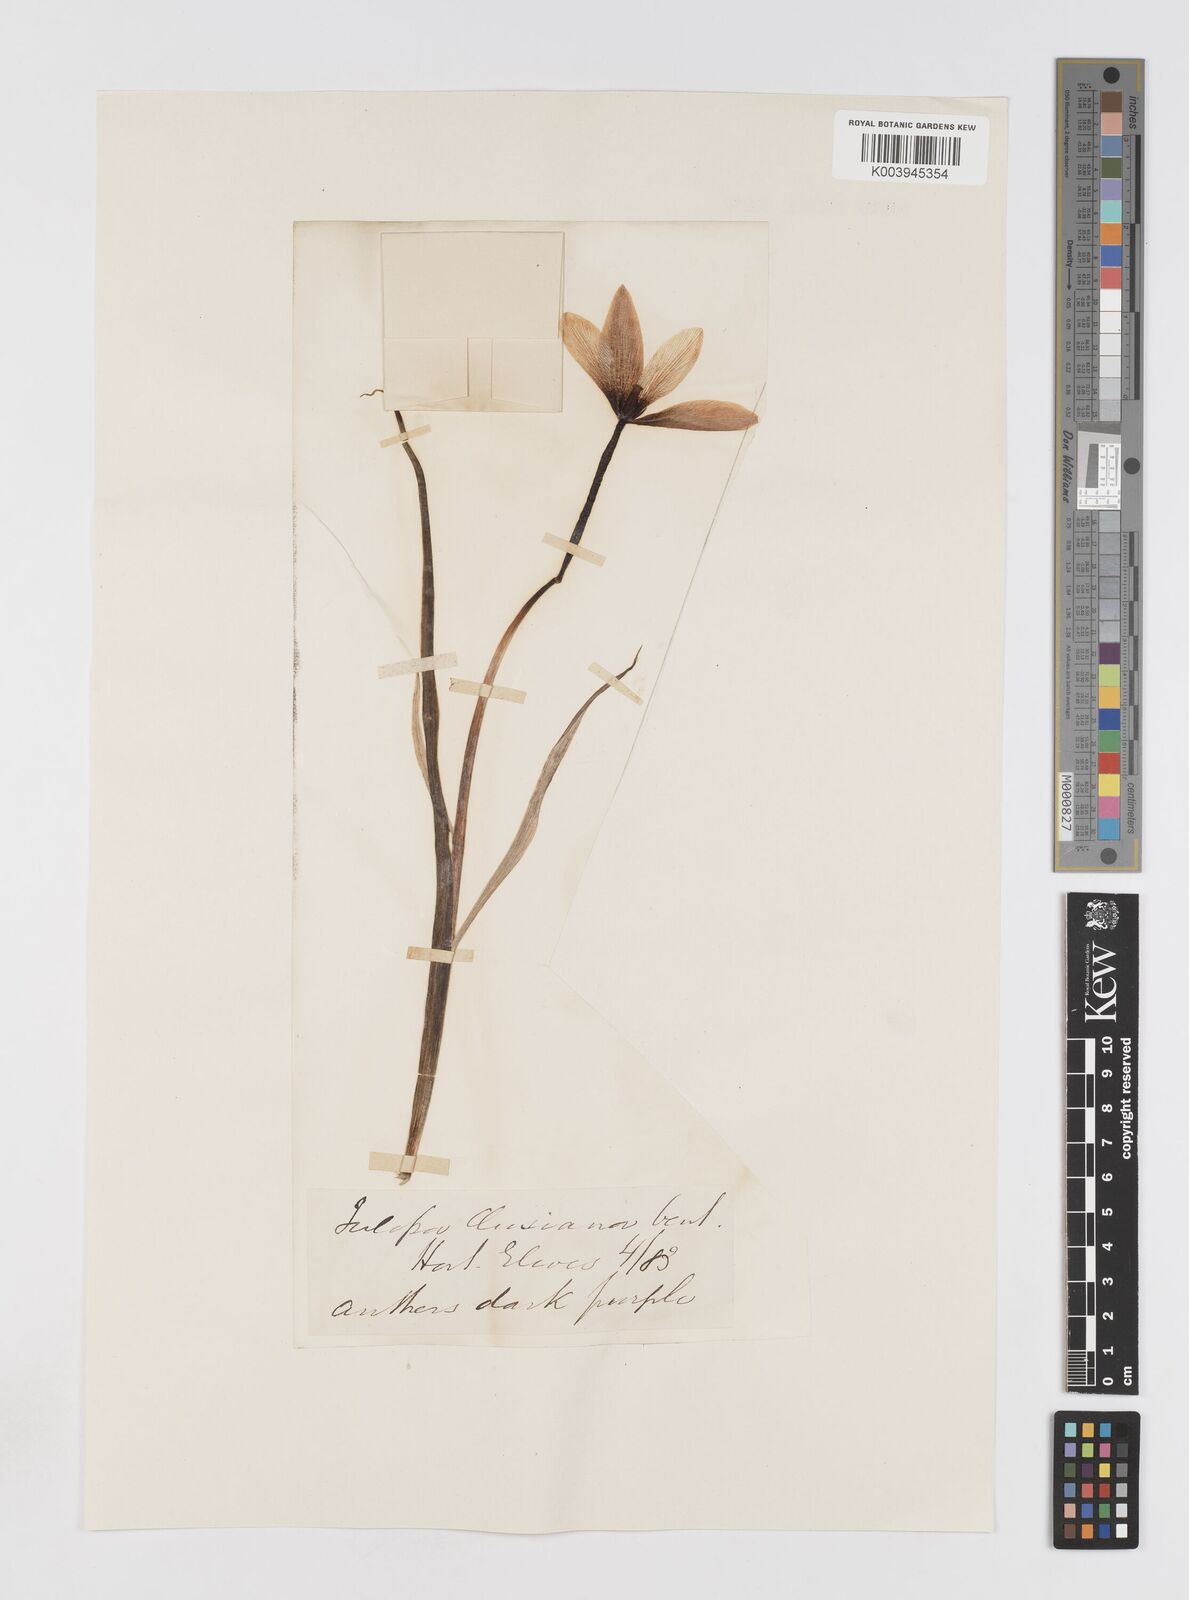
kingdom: Plantae
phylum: Tracheophyta
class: Liliopsida
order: Liliales
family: Liliaceae
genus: Tulipa
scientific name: Tulipa clusiana
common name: Lady tulip
